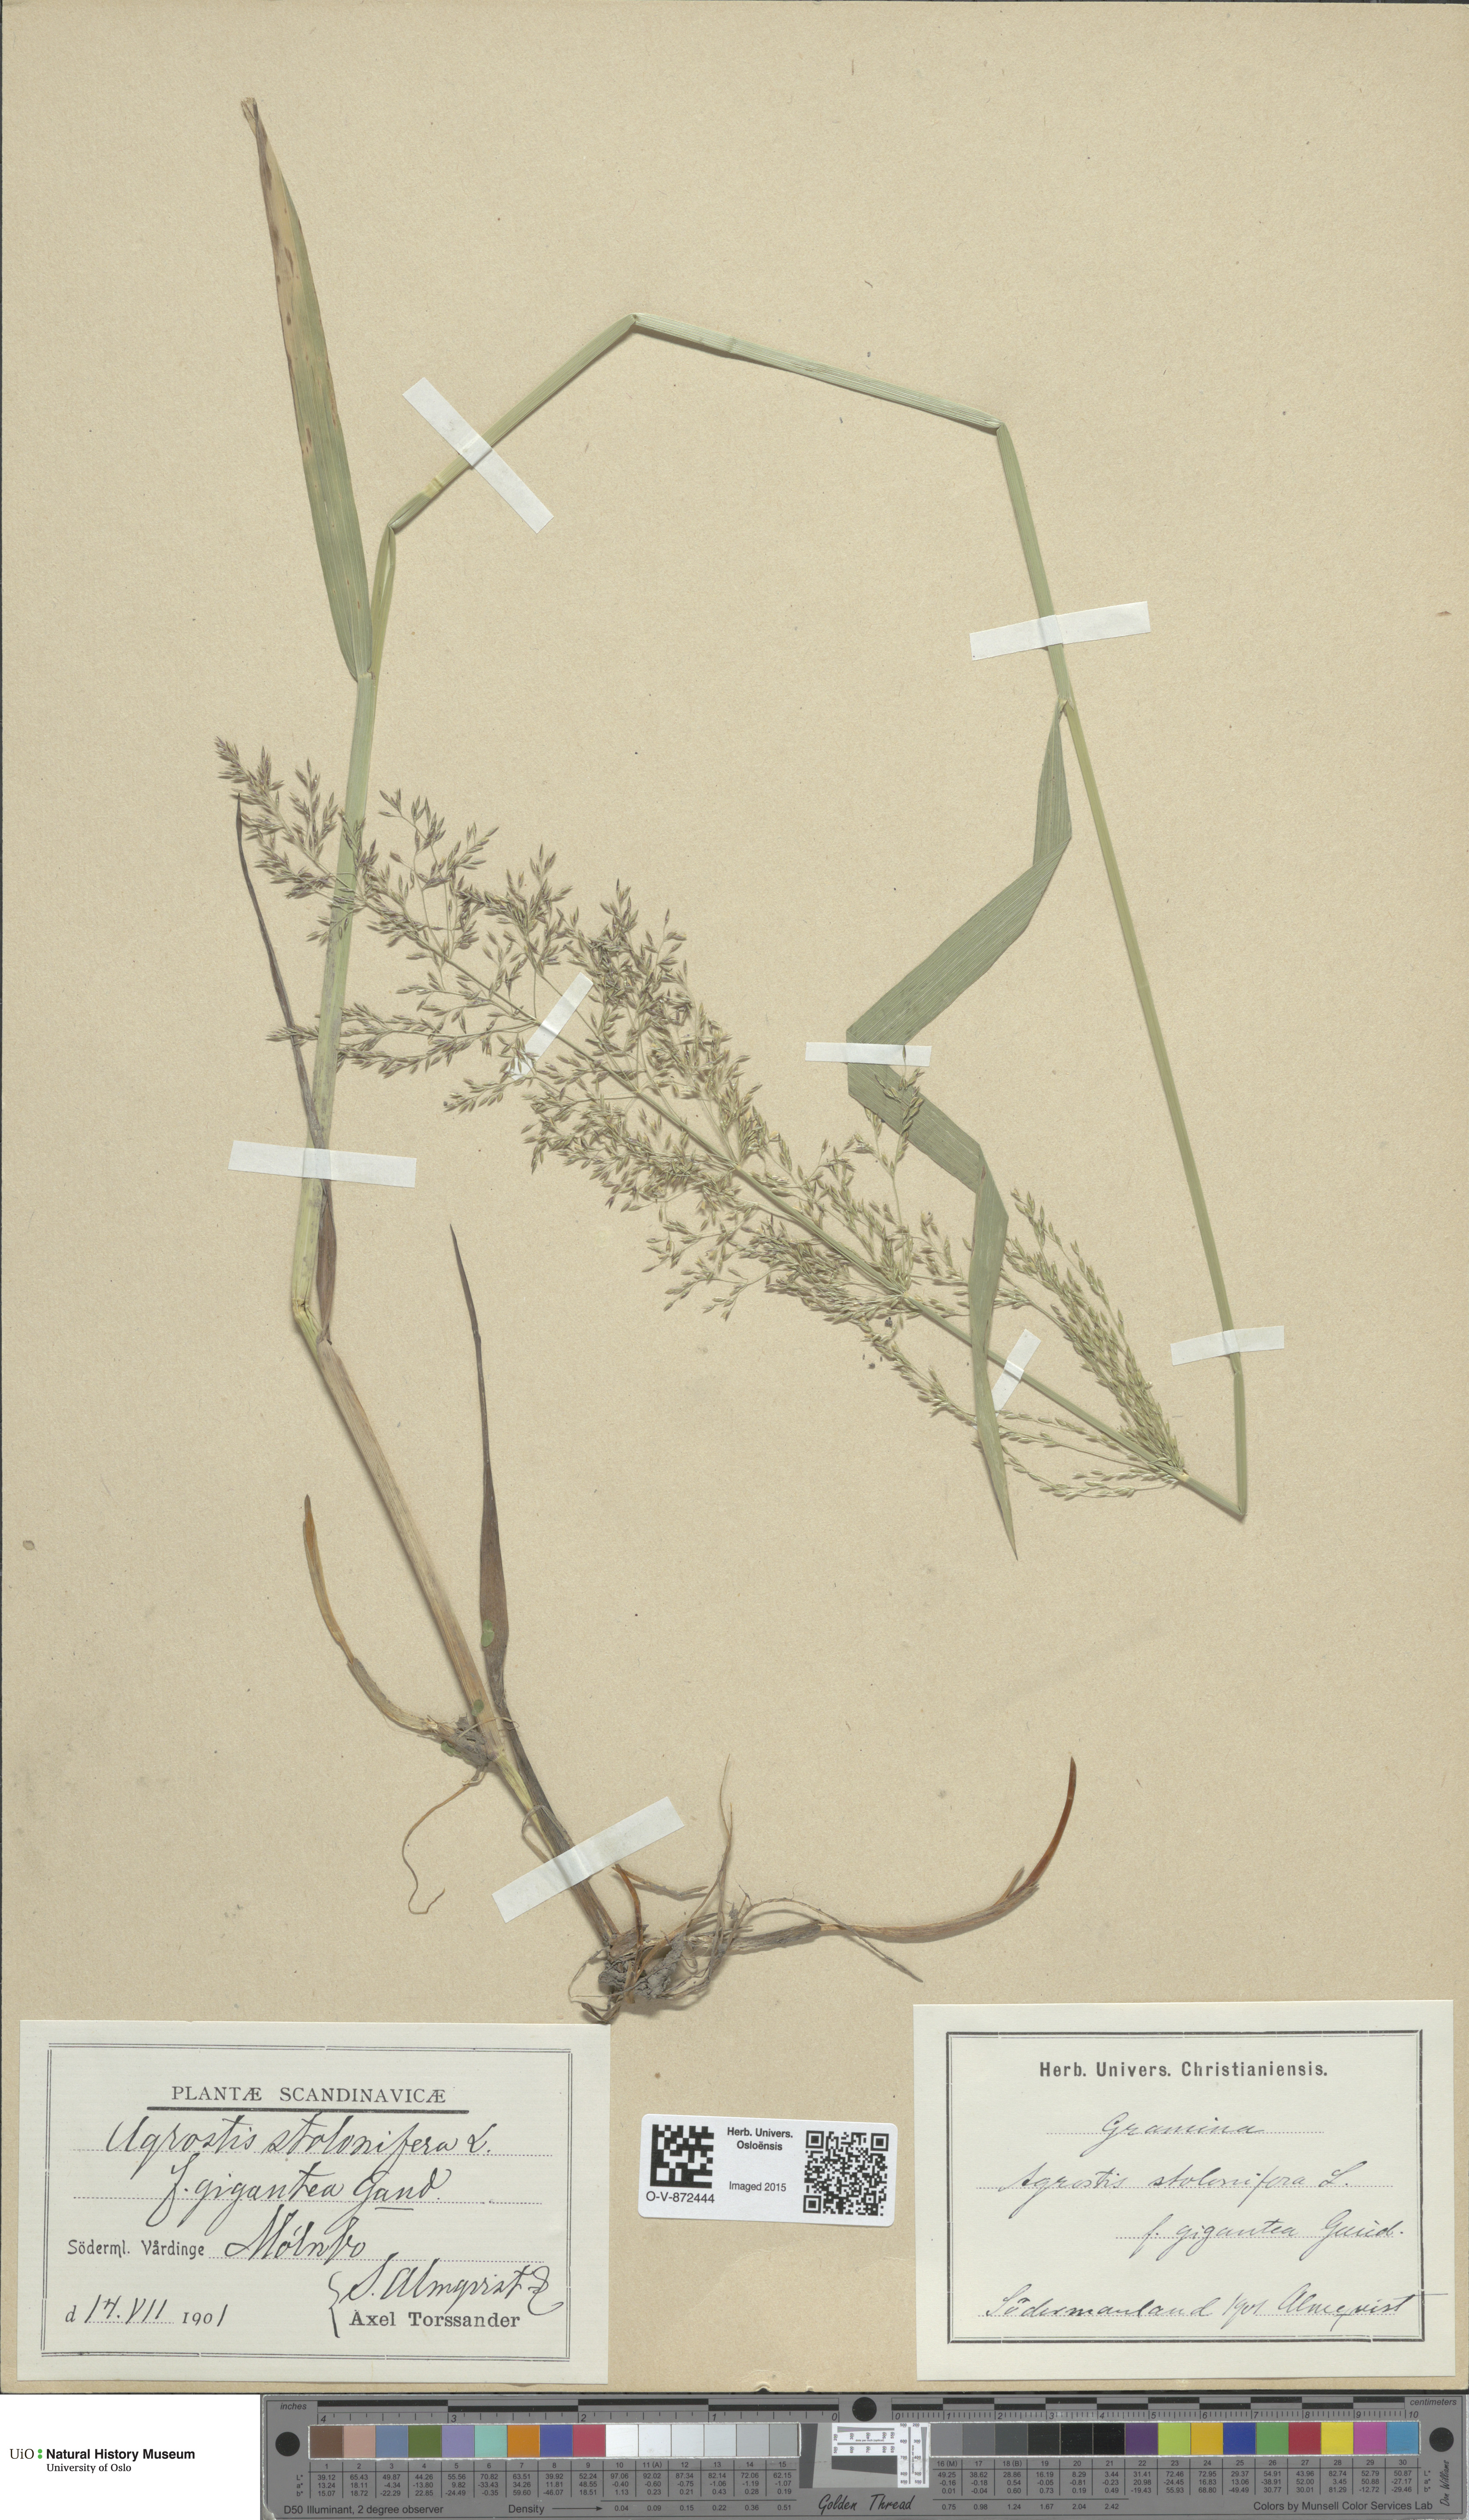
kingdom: Plantae
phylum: Tracheophyta
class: Liliopsida
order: Poales
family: Poaceae
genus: Agrostis
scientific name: Agrostis gigantea
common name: Black bent
